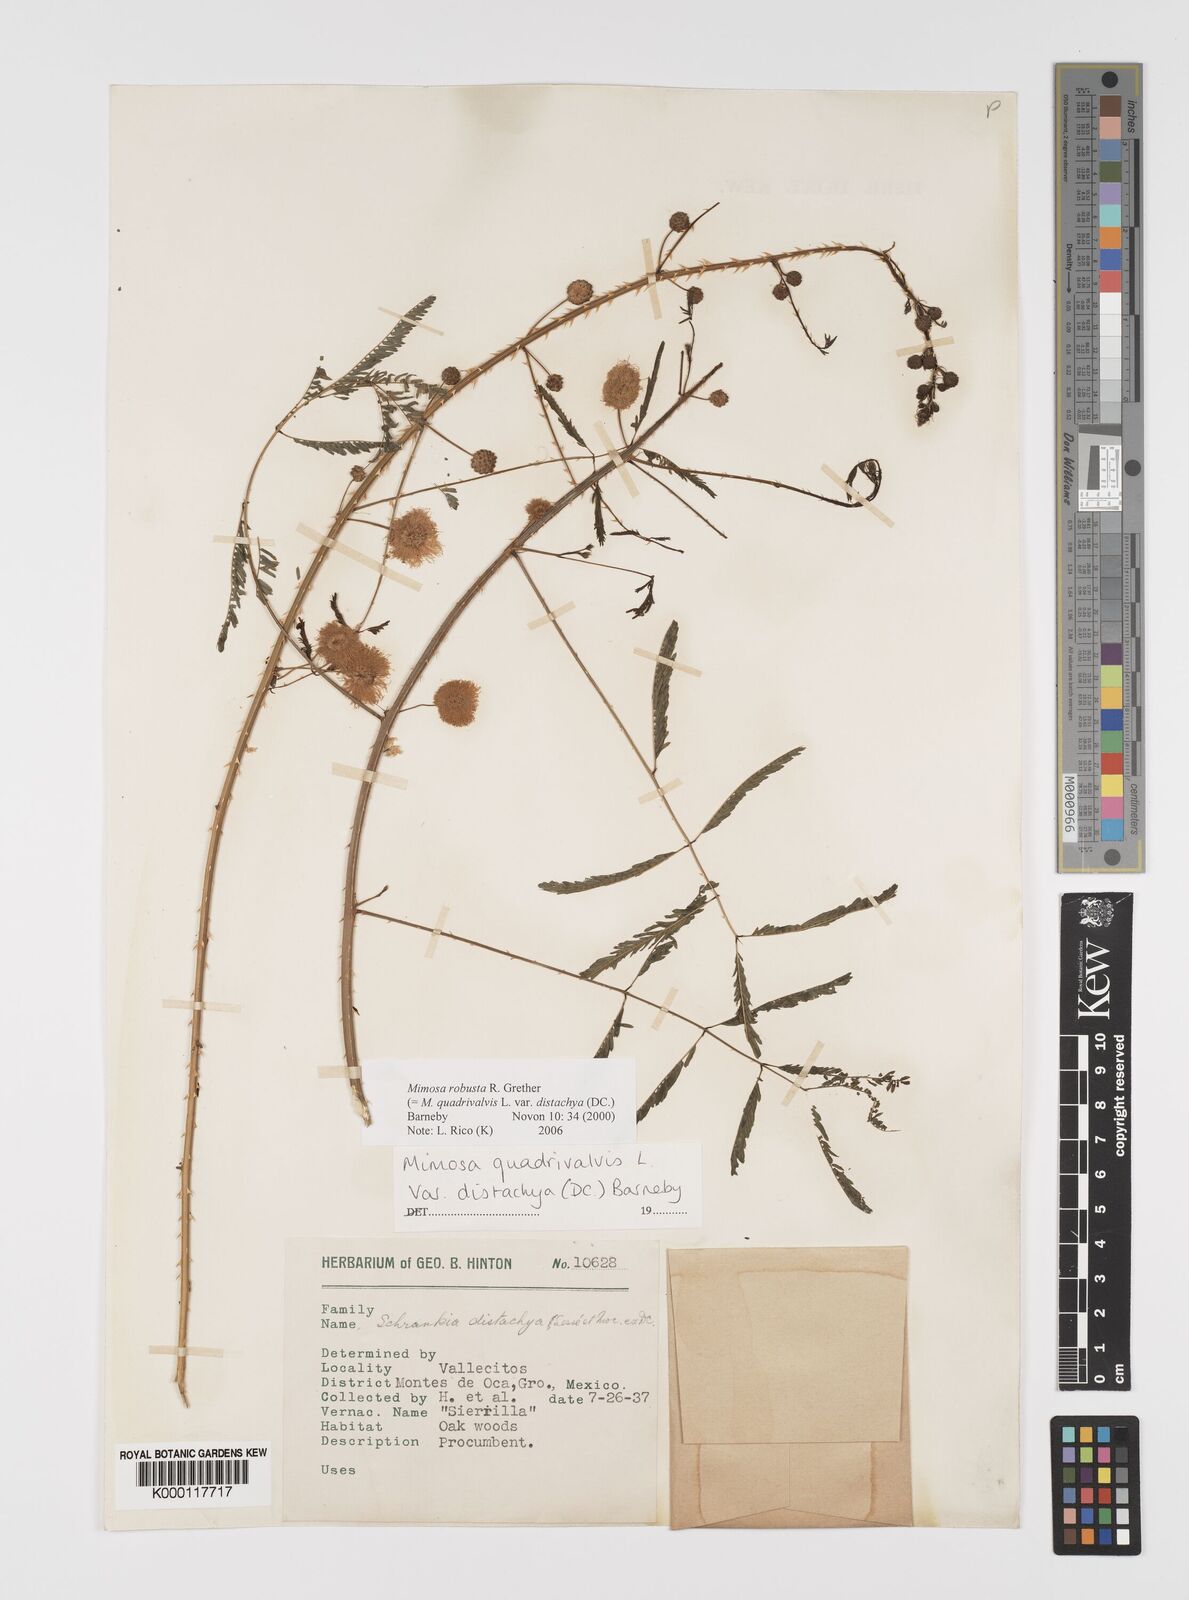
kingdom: Plantae
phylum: Tracheophyta
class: Magnoliopsida
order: Fabales
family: Fabaceae
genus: Mimosa
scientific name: Mimosa robusta
